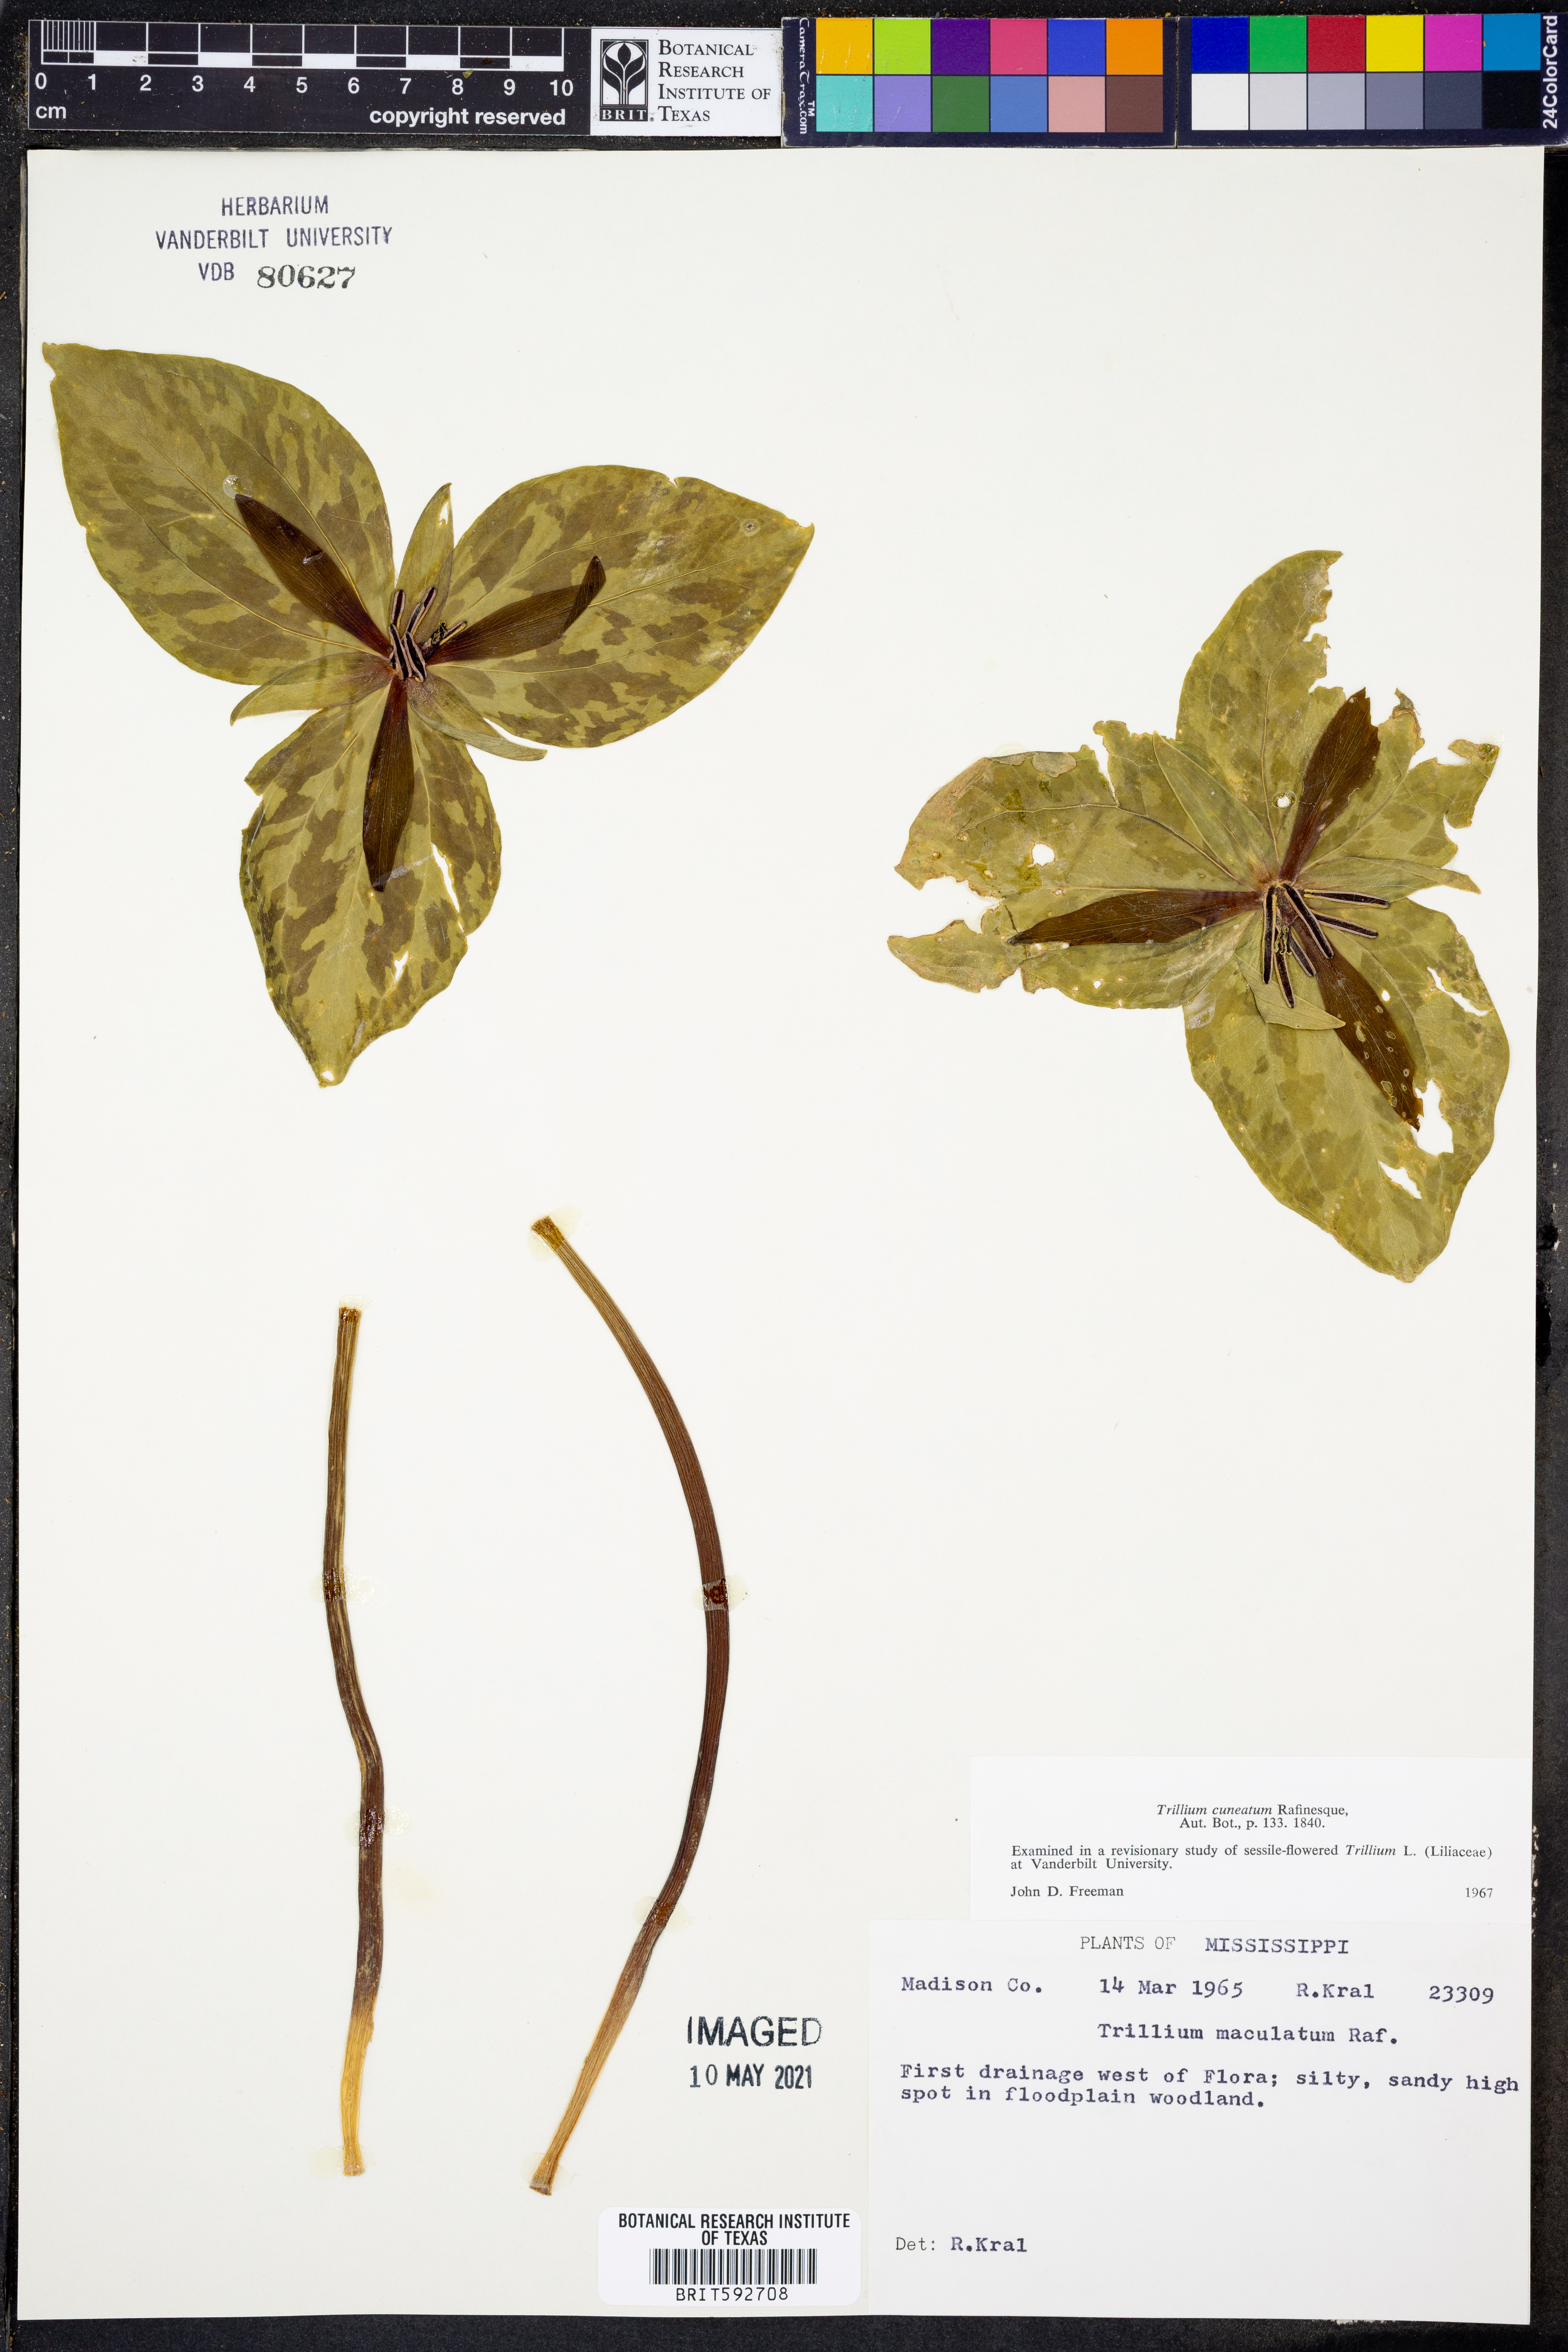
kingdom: Plantae
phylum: Tracheophyta
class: Liliopsida
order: Liliales
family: Melanthiaceae
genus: Trillium
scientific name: Trillium maculatum
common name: Mottled trillium
